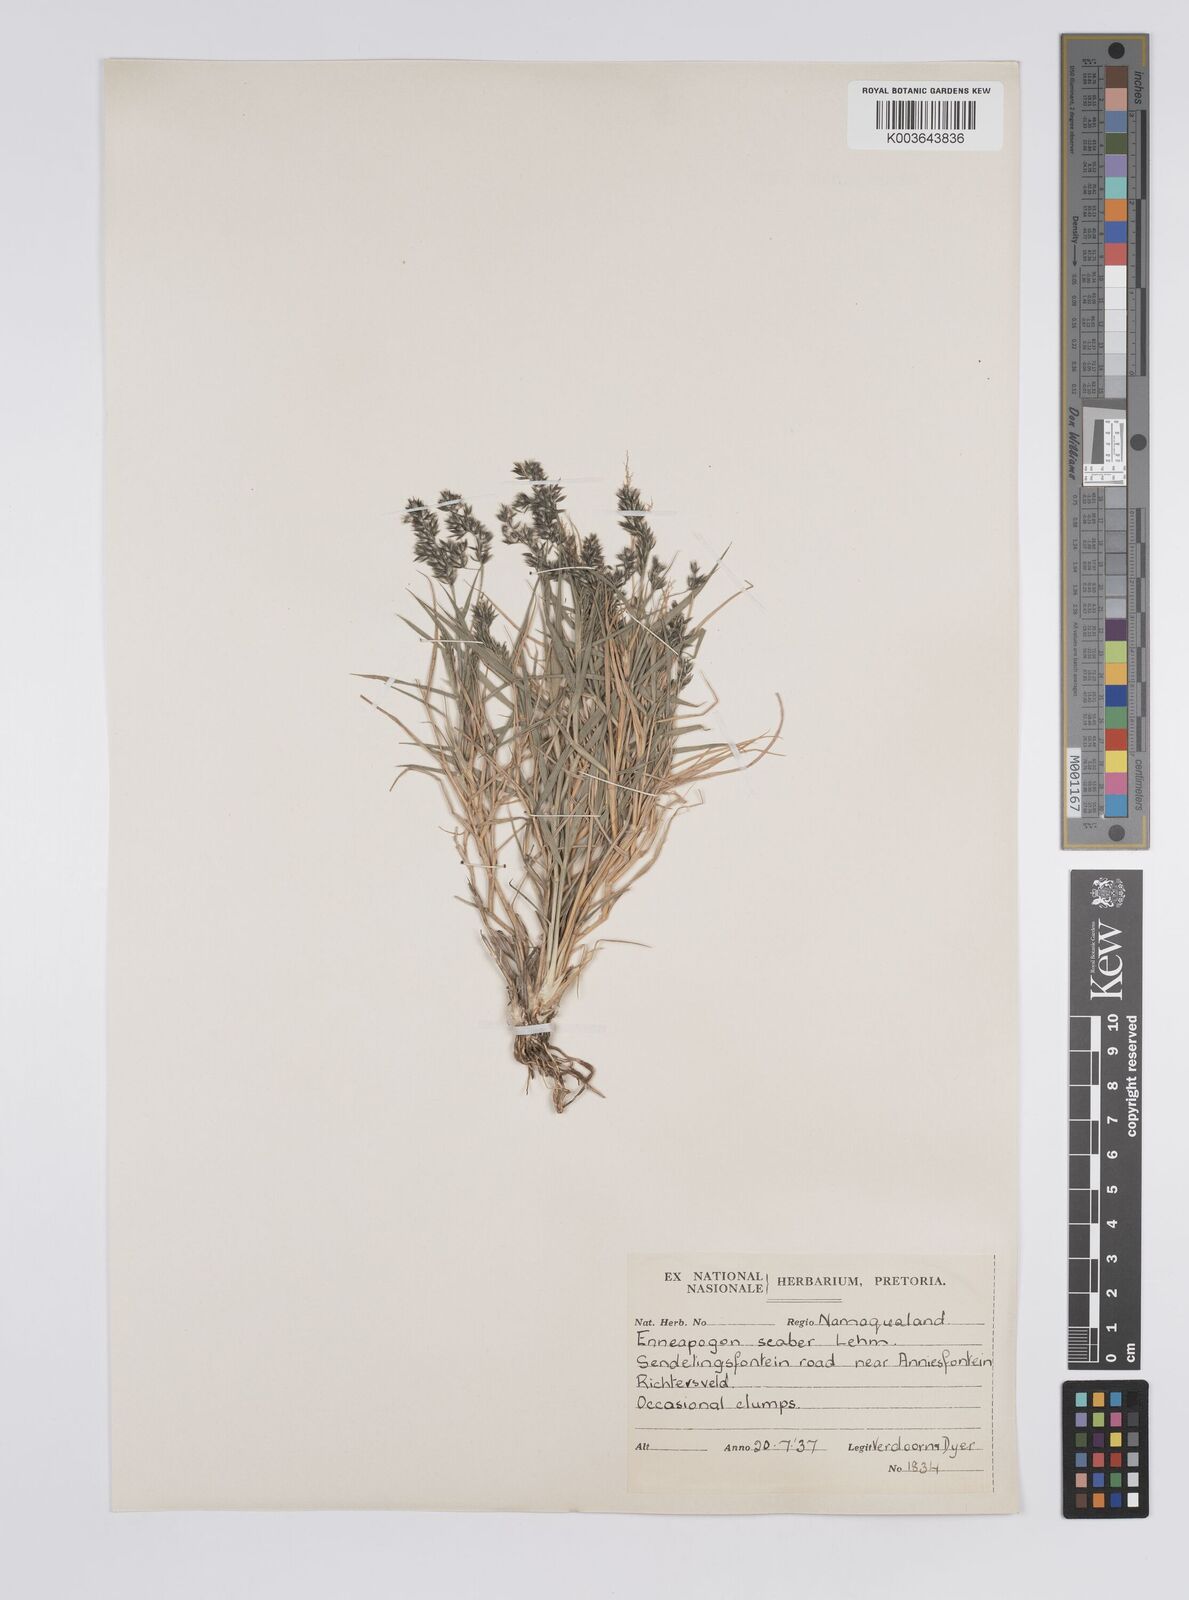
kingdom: Plantae
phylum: Tracheophyta
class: Liliopsida
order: Poales
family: Poaceae
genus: Enneapogon
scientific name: Enneapogon scaber
